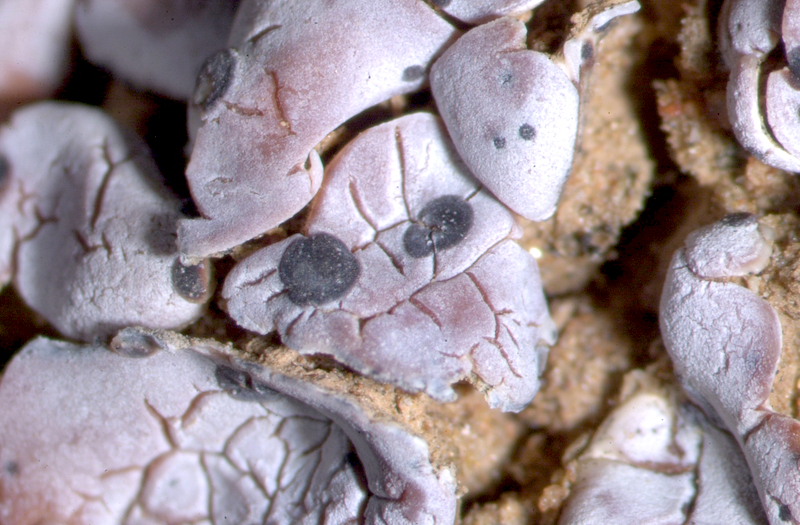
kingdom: Fungi
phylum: Ascomycota
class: Lecanoromycetes
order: Lecanorales
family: Psoraceae
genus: Psora
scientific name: Psora crenata
